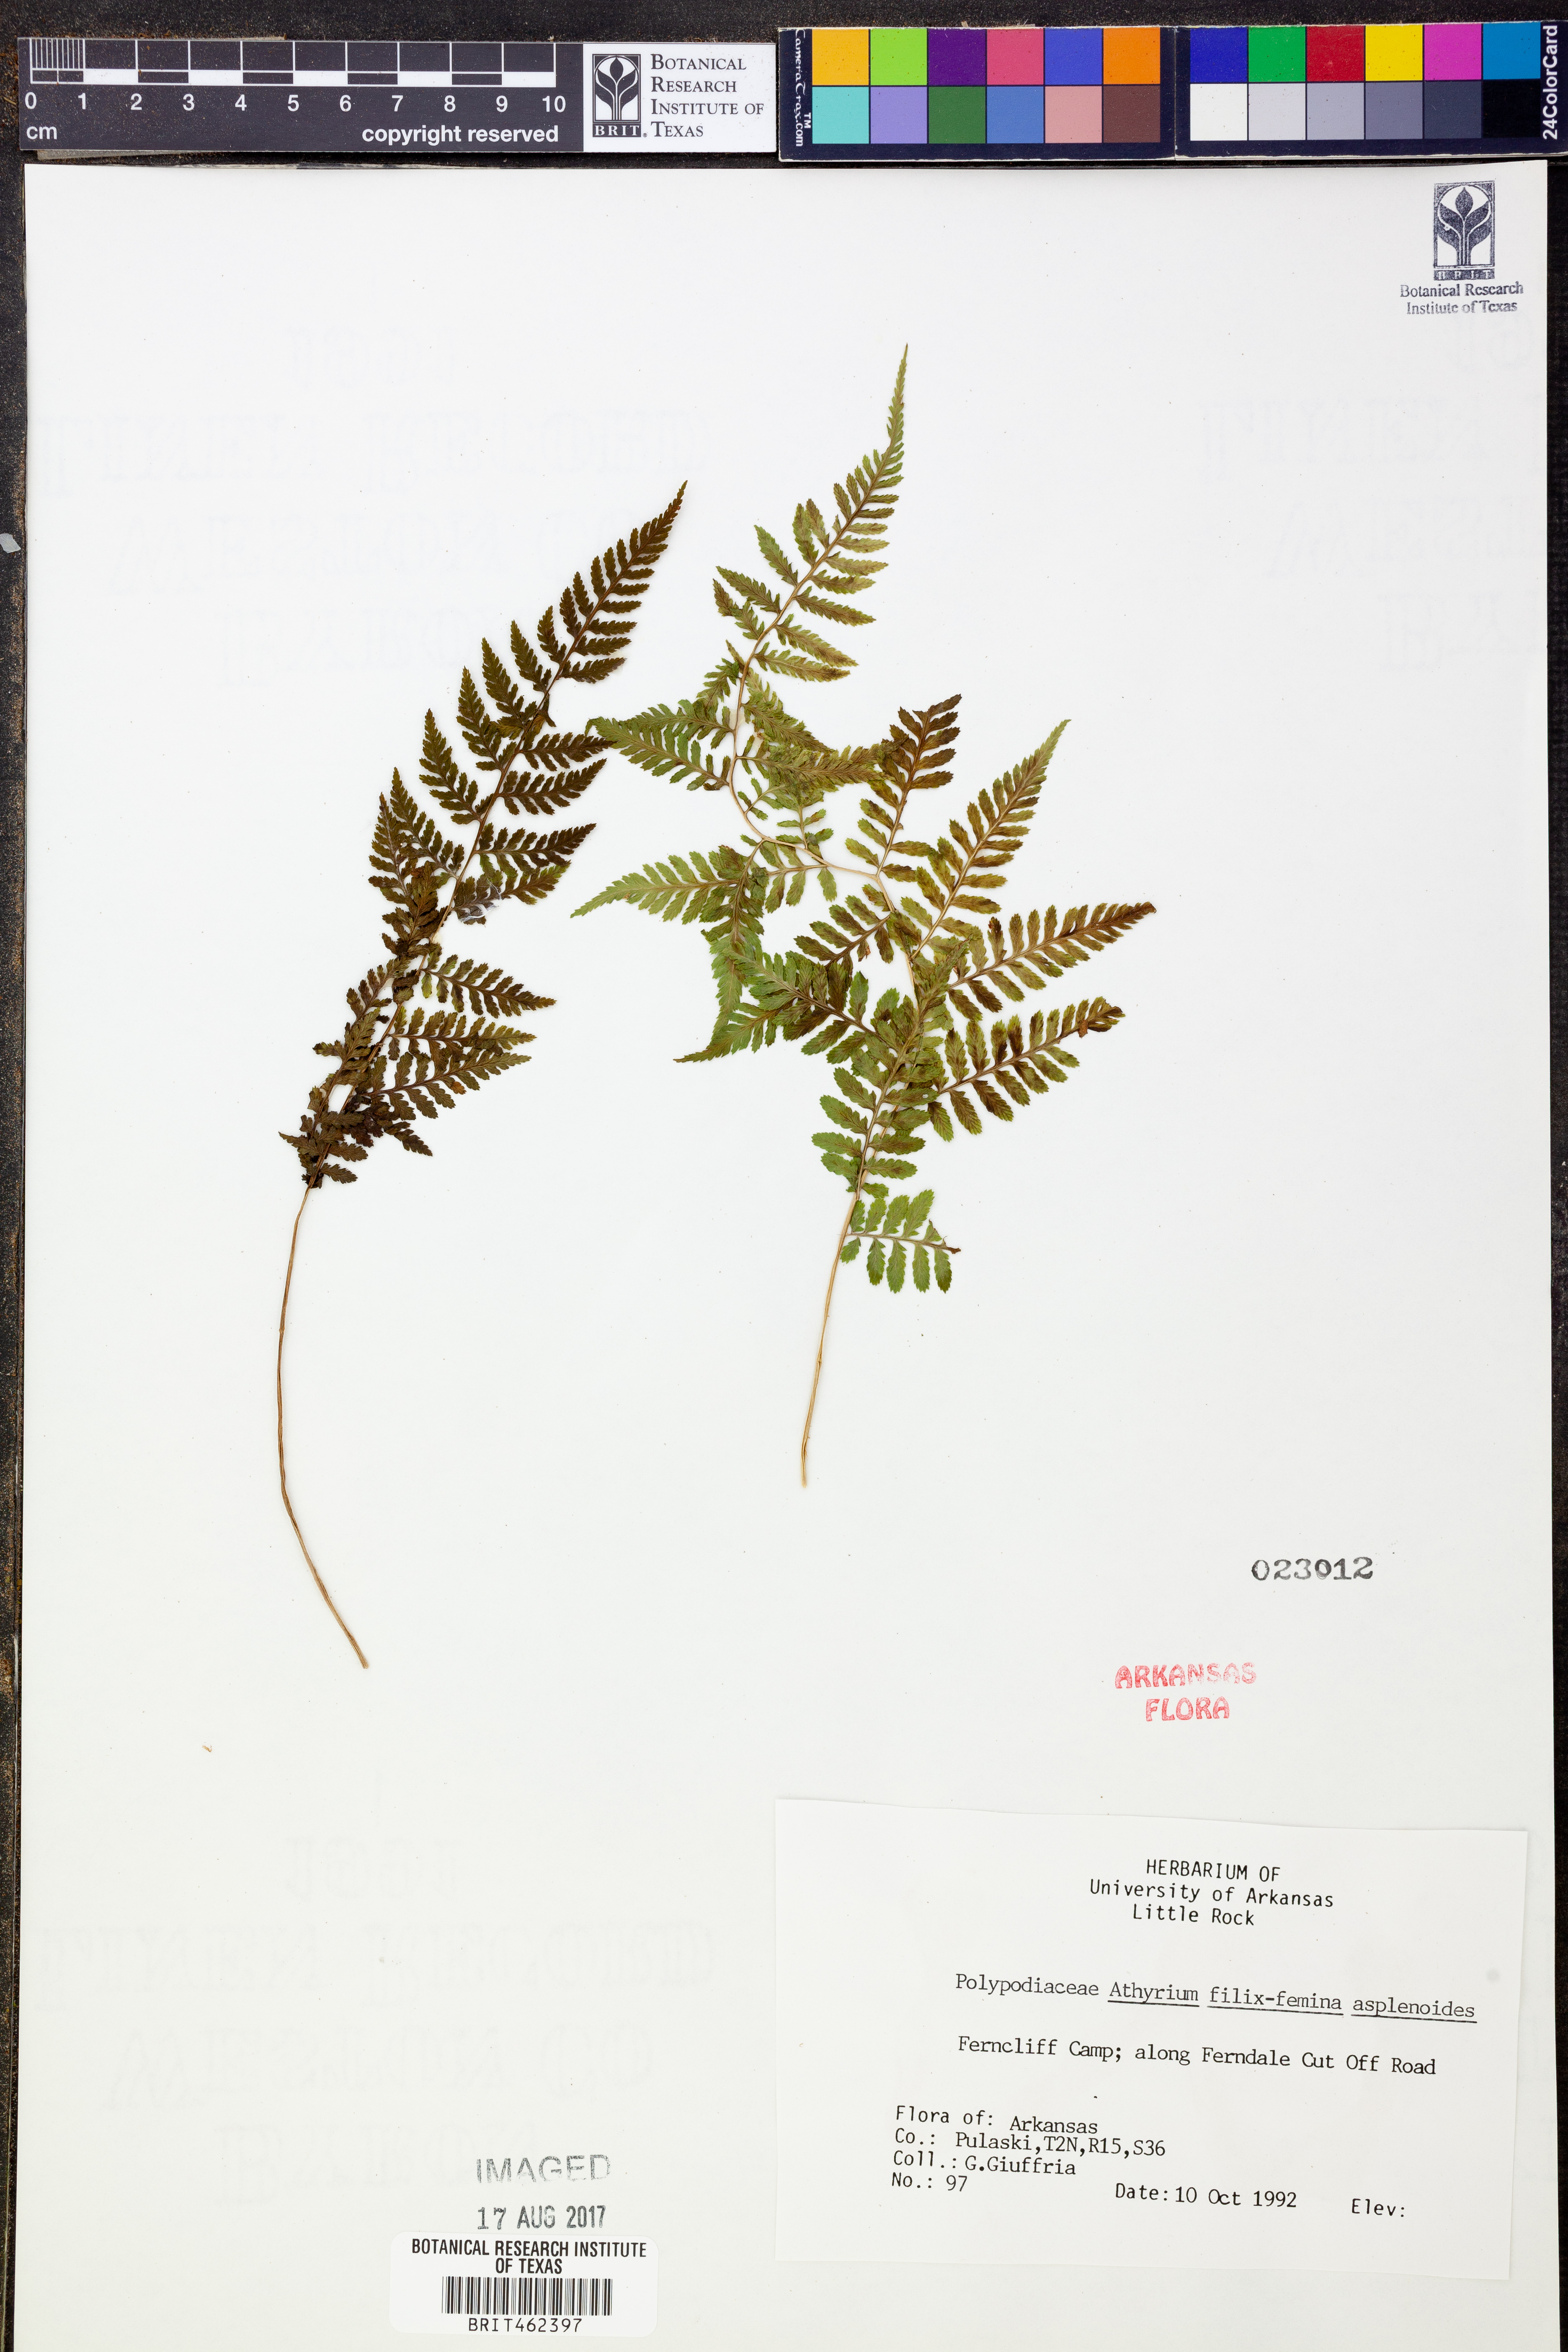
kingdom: Plantae
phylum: Tracheophyta
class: Polypodiopsida
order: Polypodiales
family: Athyriaceae
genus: Athyrium
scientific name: Athyrium asplenioides
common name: Southern lady fern
